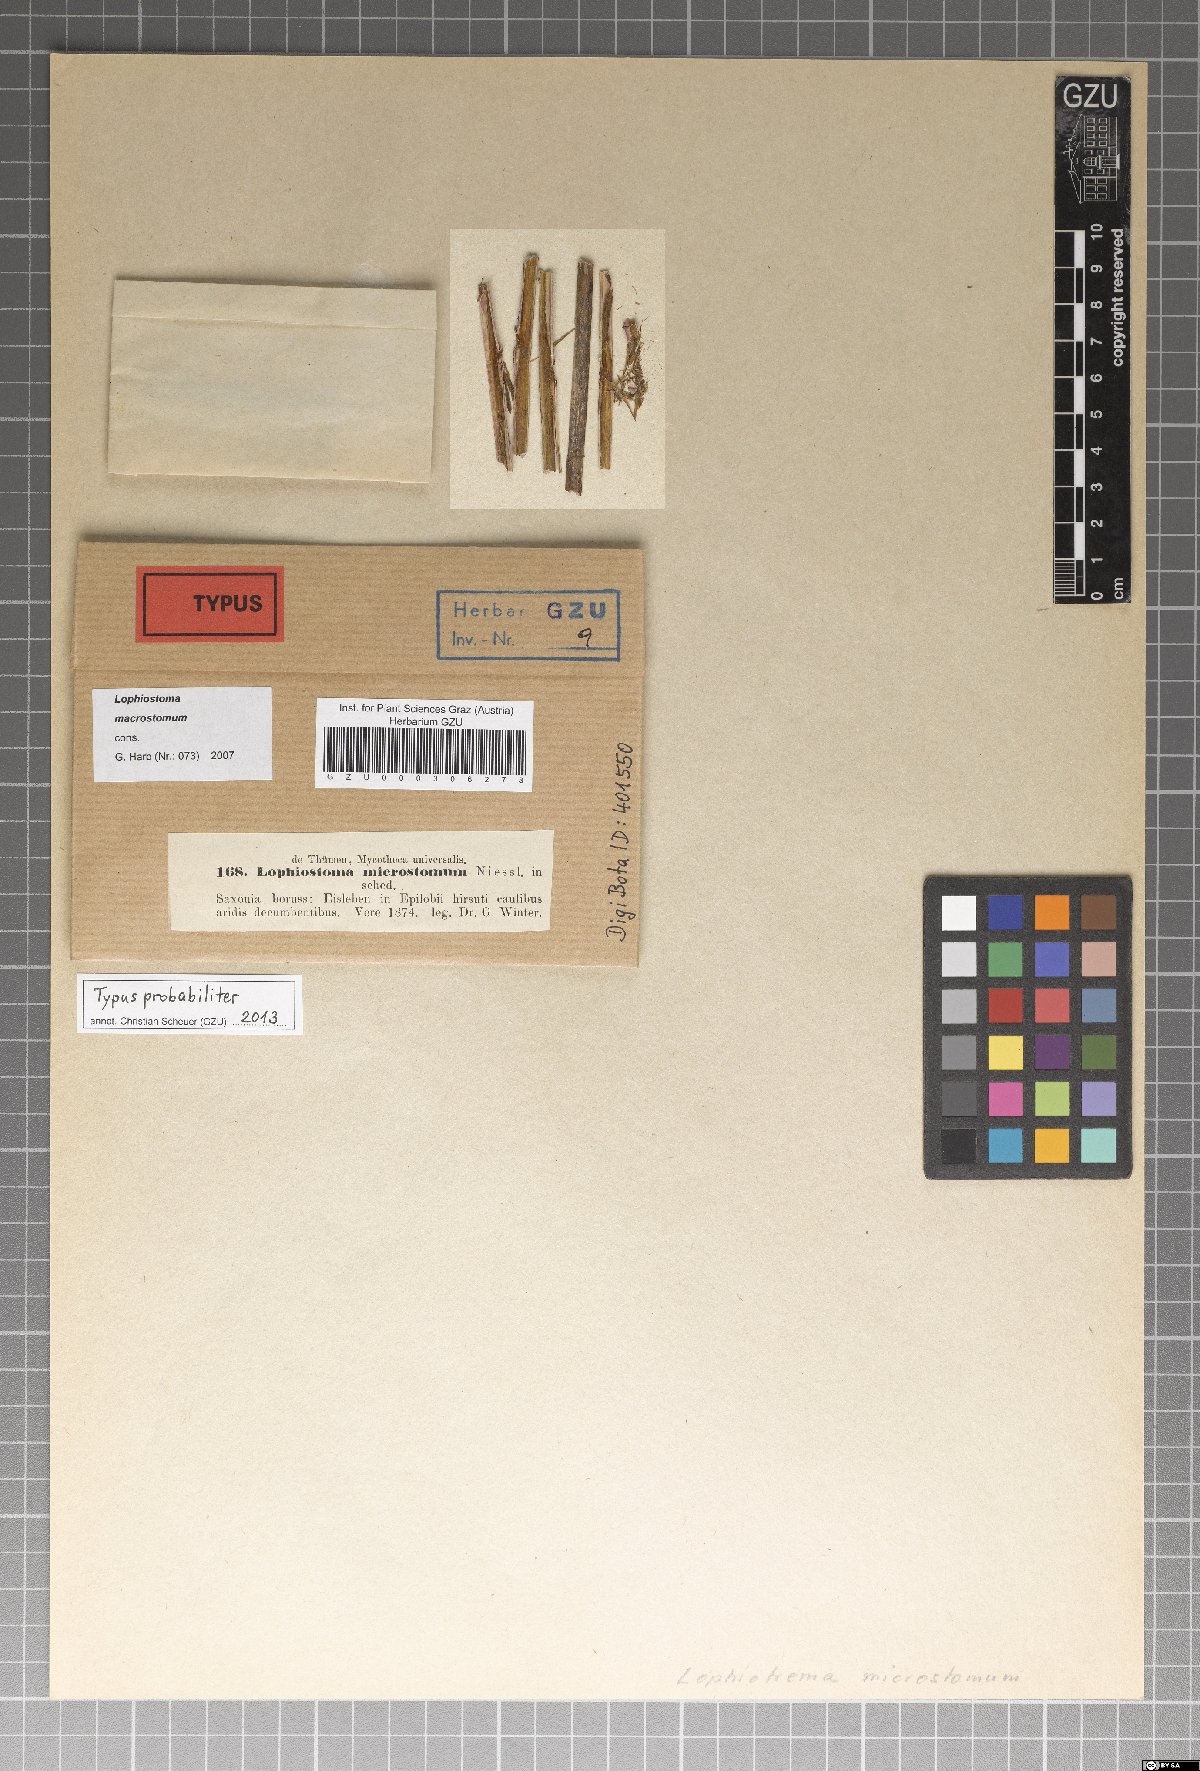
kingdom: Fungi
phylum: Ascomycota
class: Dothideomycetes
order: Pleosporales
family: Lophiostomataceae
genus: Lophiostoma
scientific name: Lophiostoma microstomum
